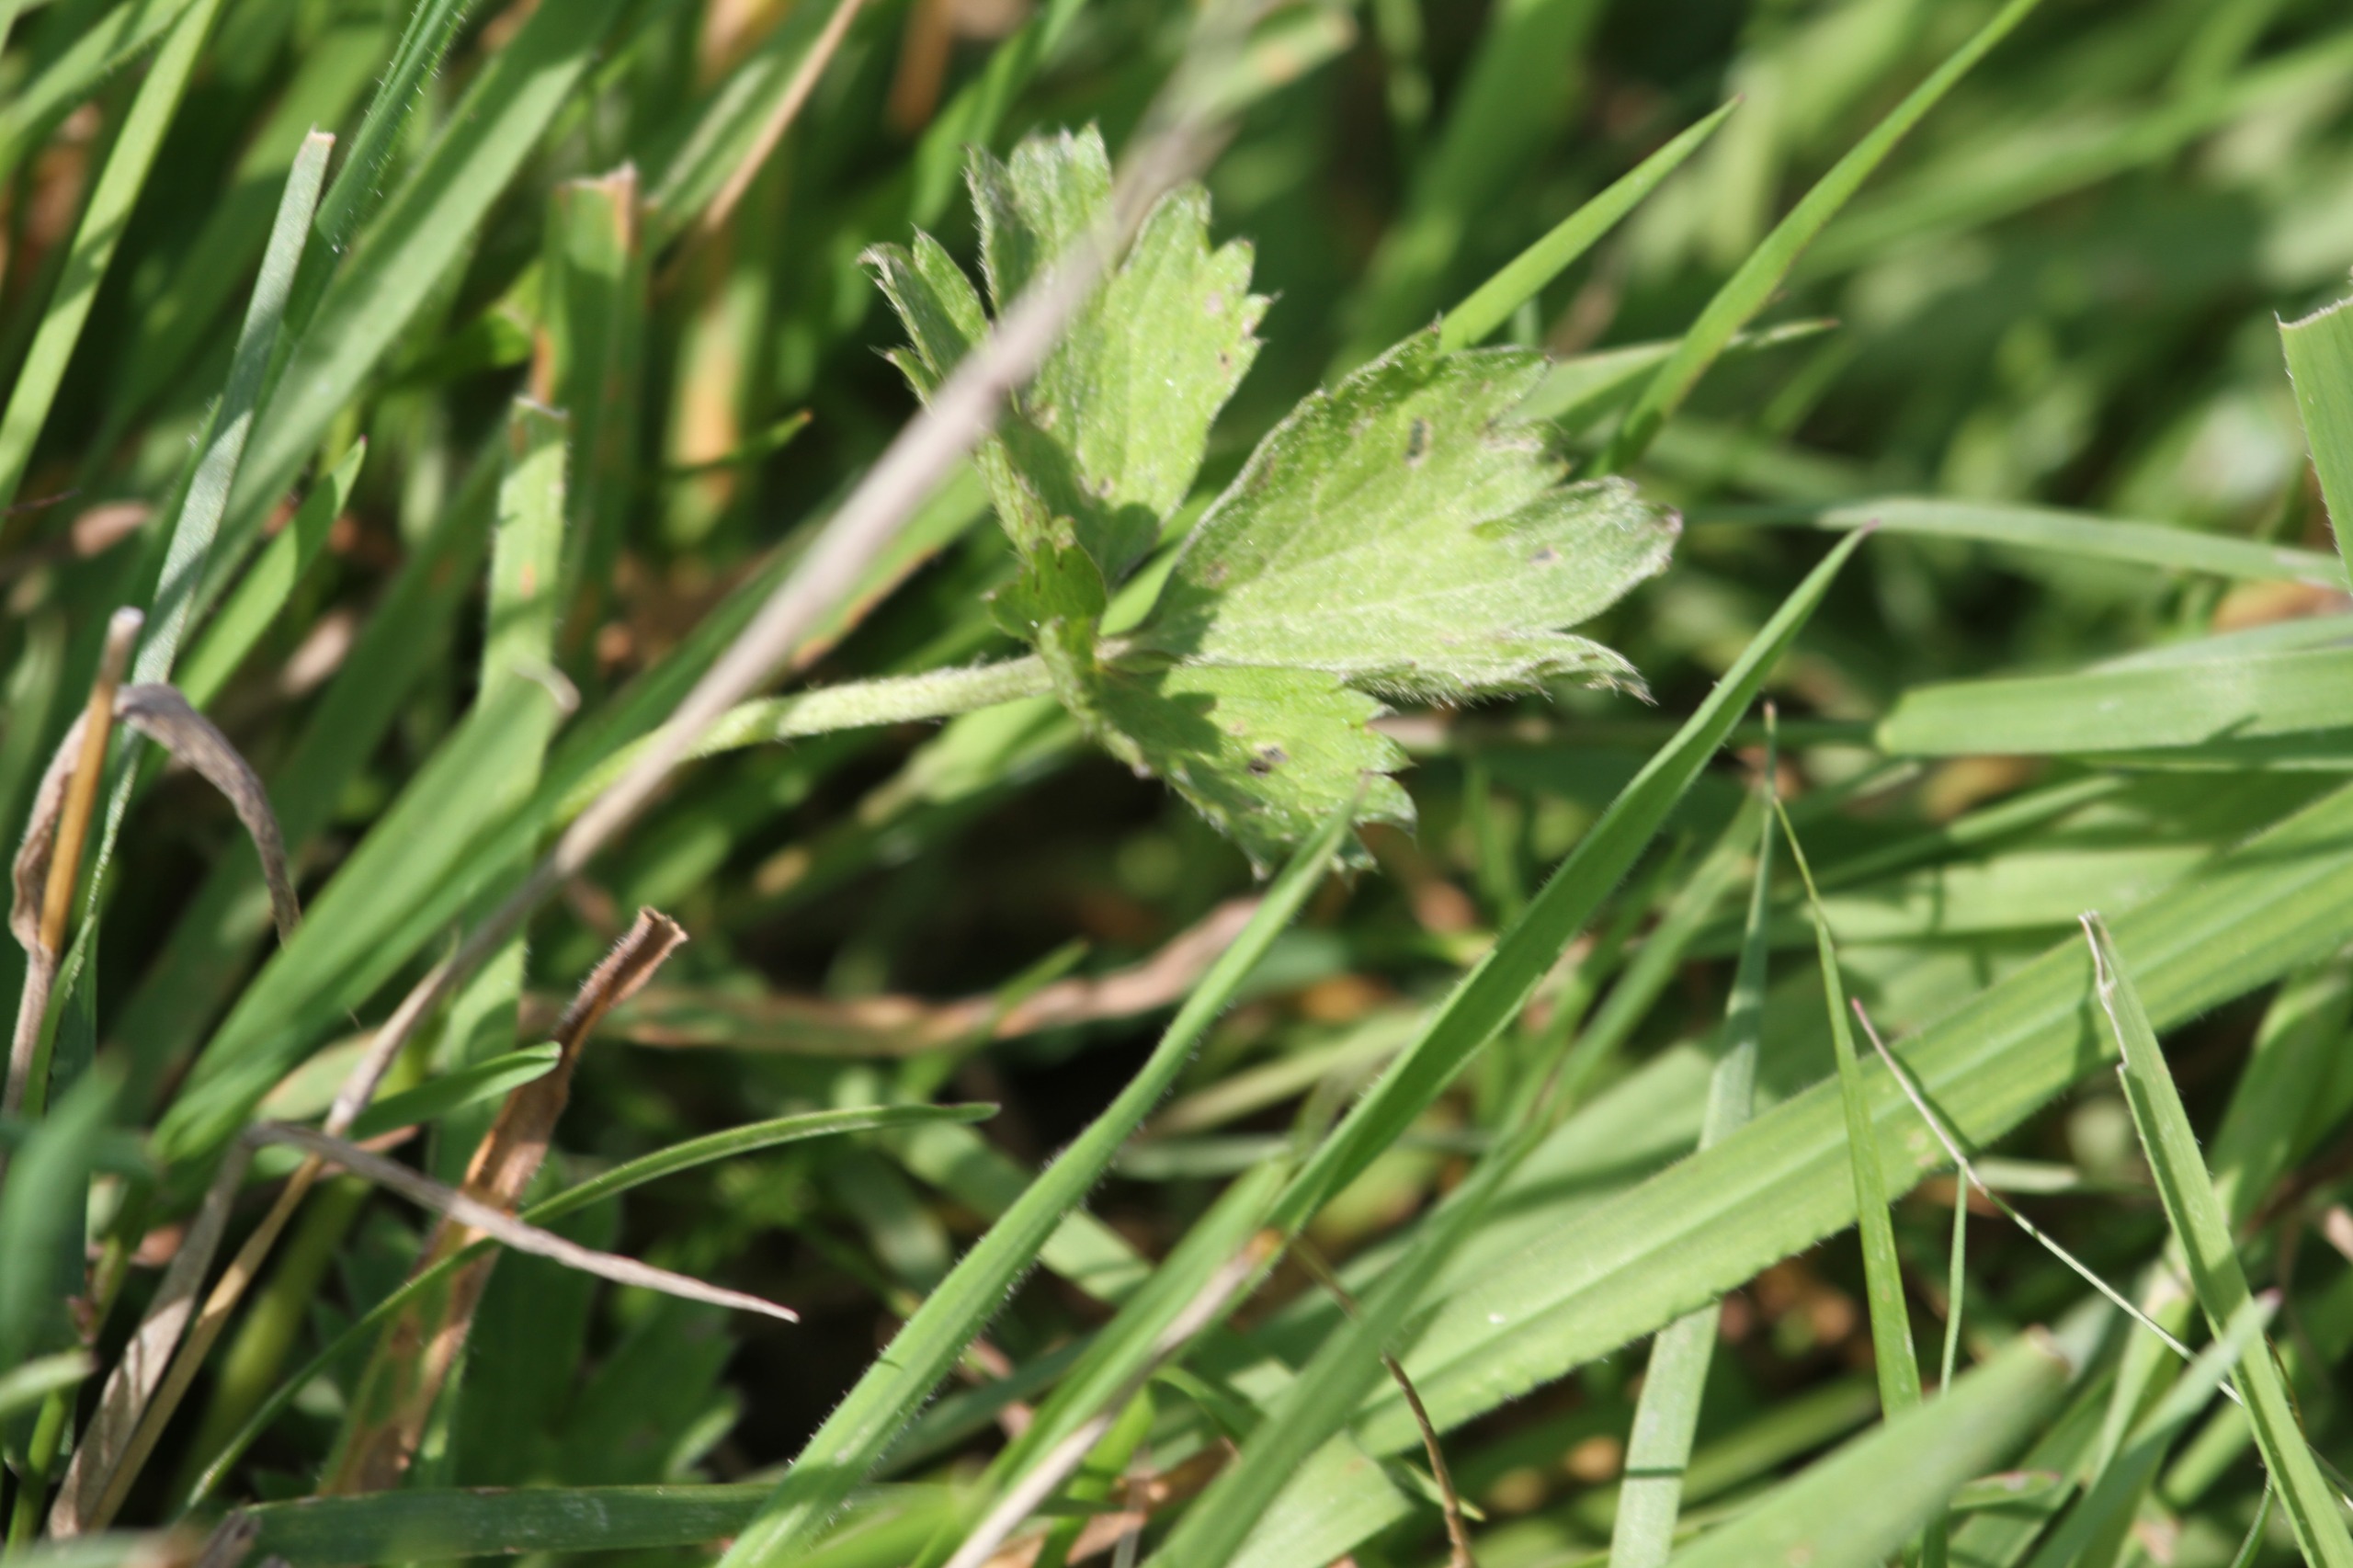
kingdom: Plantae
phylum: Tracheophyta
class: Magnoliopsida
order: Ranunculales
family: Ranunculaceae
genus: Ranunculus
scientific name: Ranunculus repens
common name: Lav ranunkel
